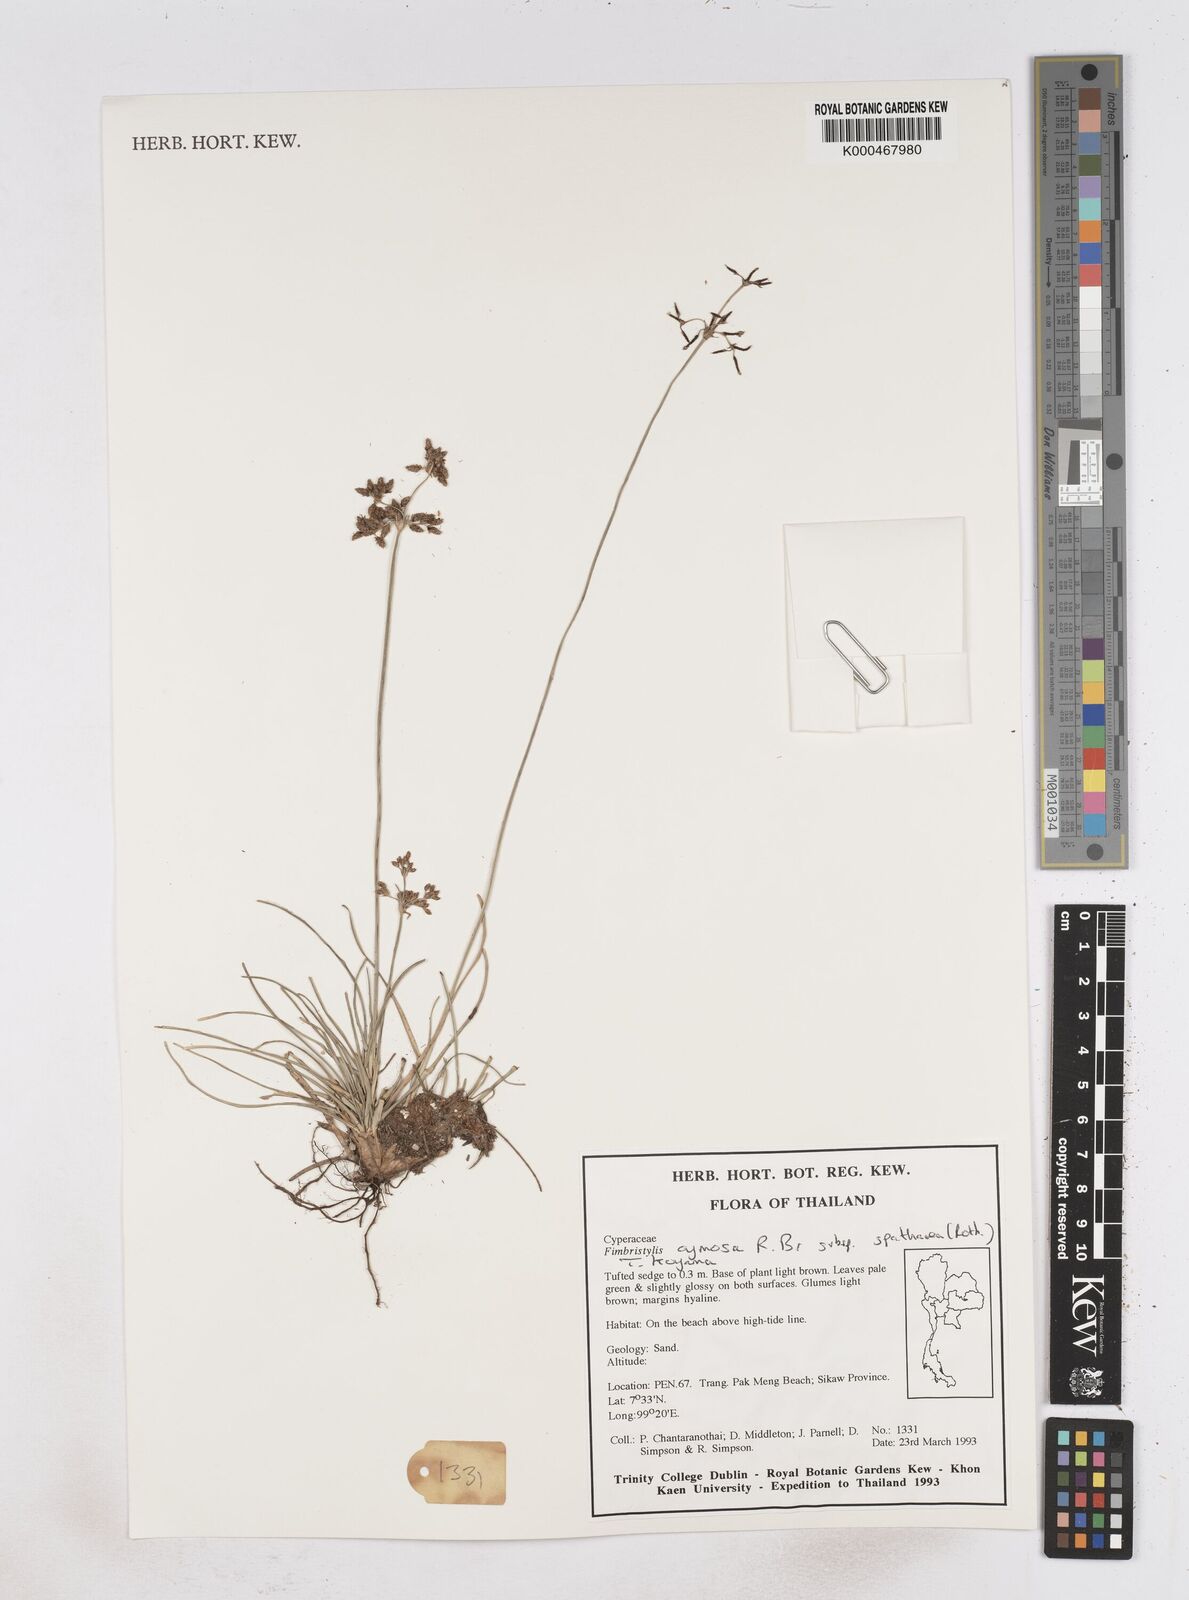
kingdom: Plantae
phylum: Tracheophyta
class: Liliopsida
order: Poales
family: Cyperaceae
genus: Fimbristylis
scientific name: Fimbristylis cymosa
